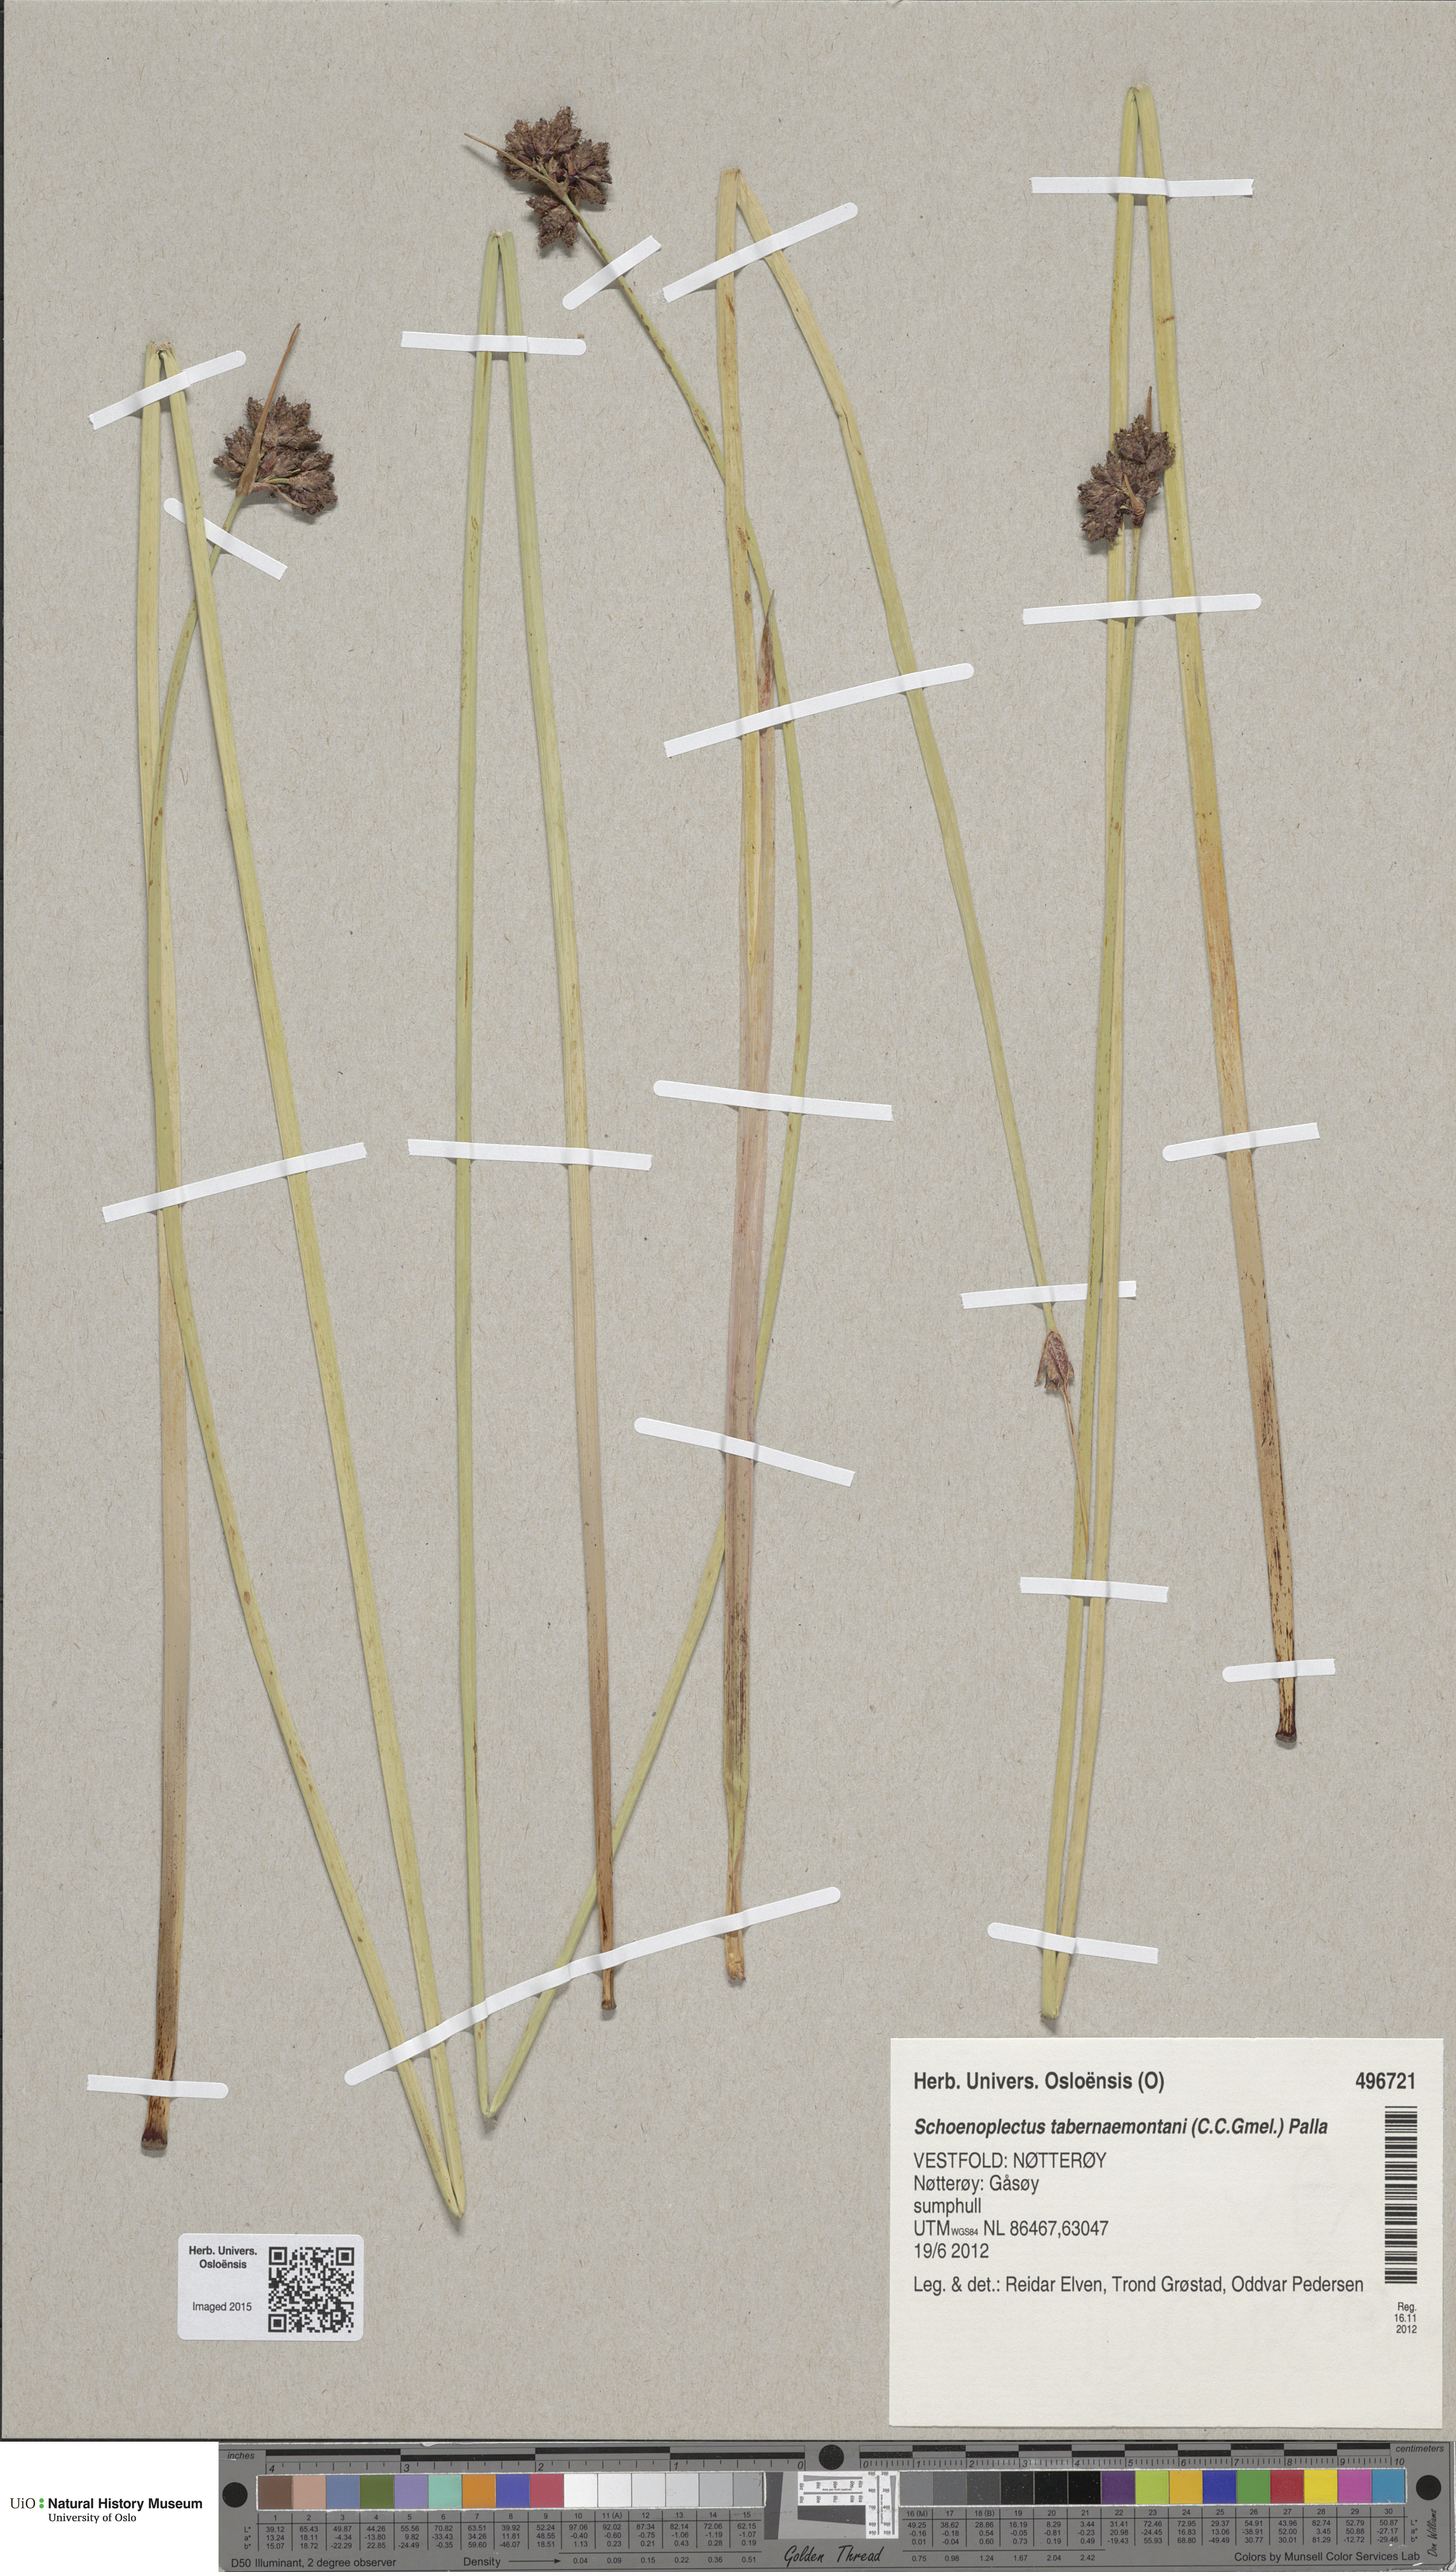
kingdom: Plantae
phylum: Tracheophyta
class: Liliopsida
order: Poales
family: Cyperaceae
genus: Schoenoplectus
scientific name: Schoenoplectus tabernaemontani
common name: Grey club-rush
